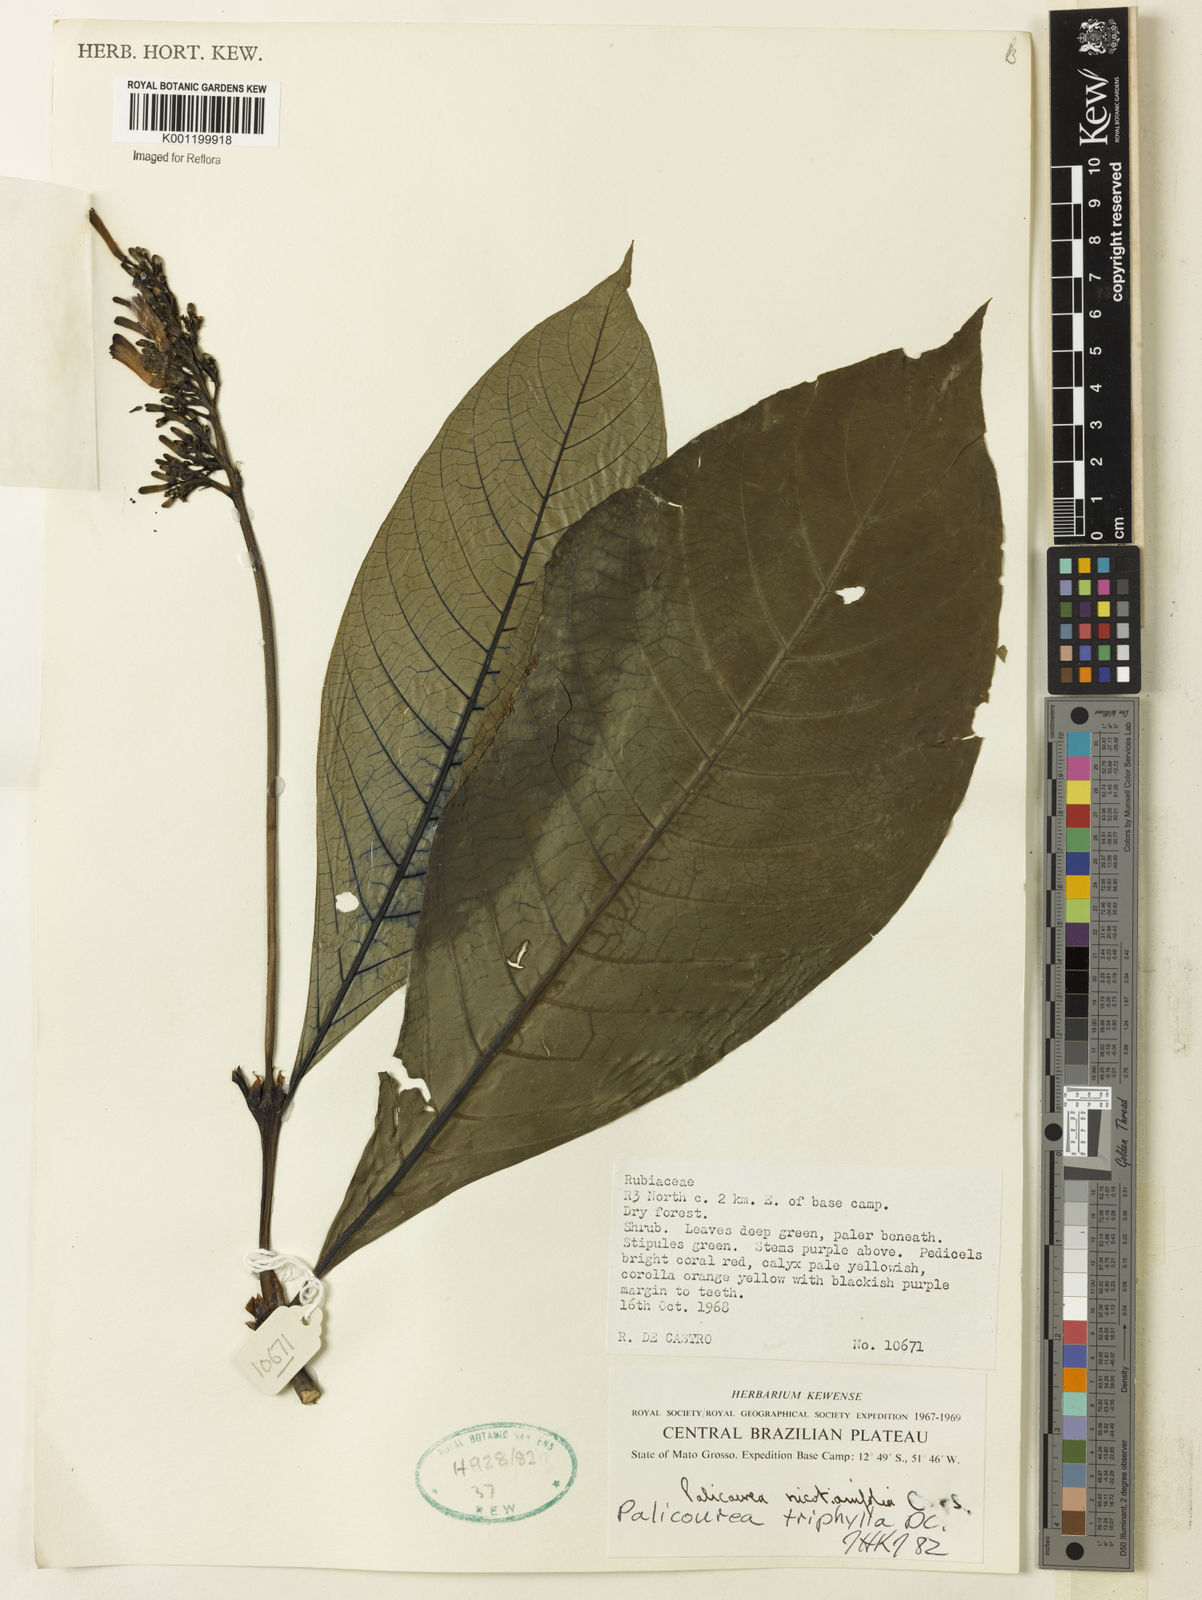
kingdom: Plantae
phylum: Tracheophyta
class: Magnoliopsida
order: Gentianales
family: Rubiaceae
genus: Palicourea
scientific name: Palicourea triphylla
